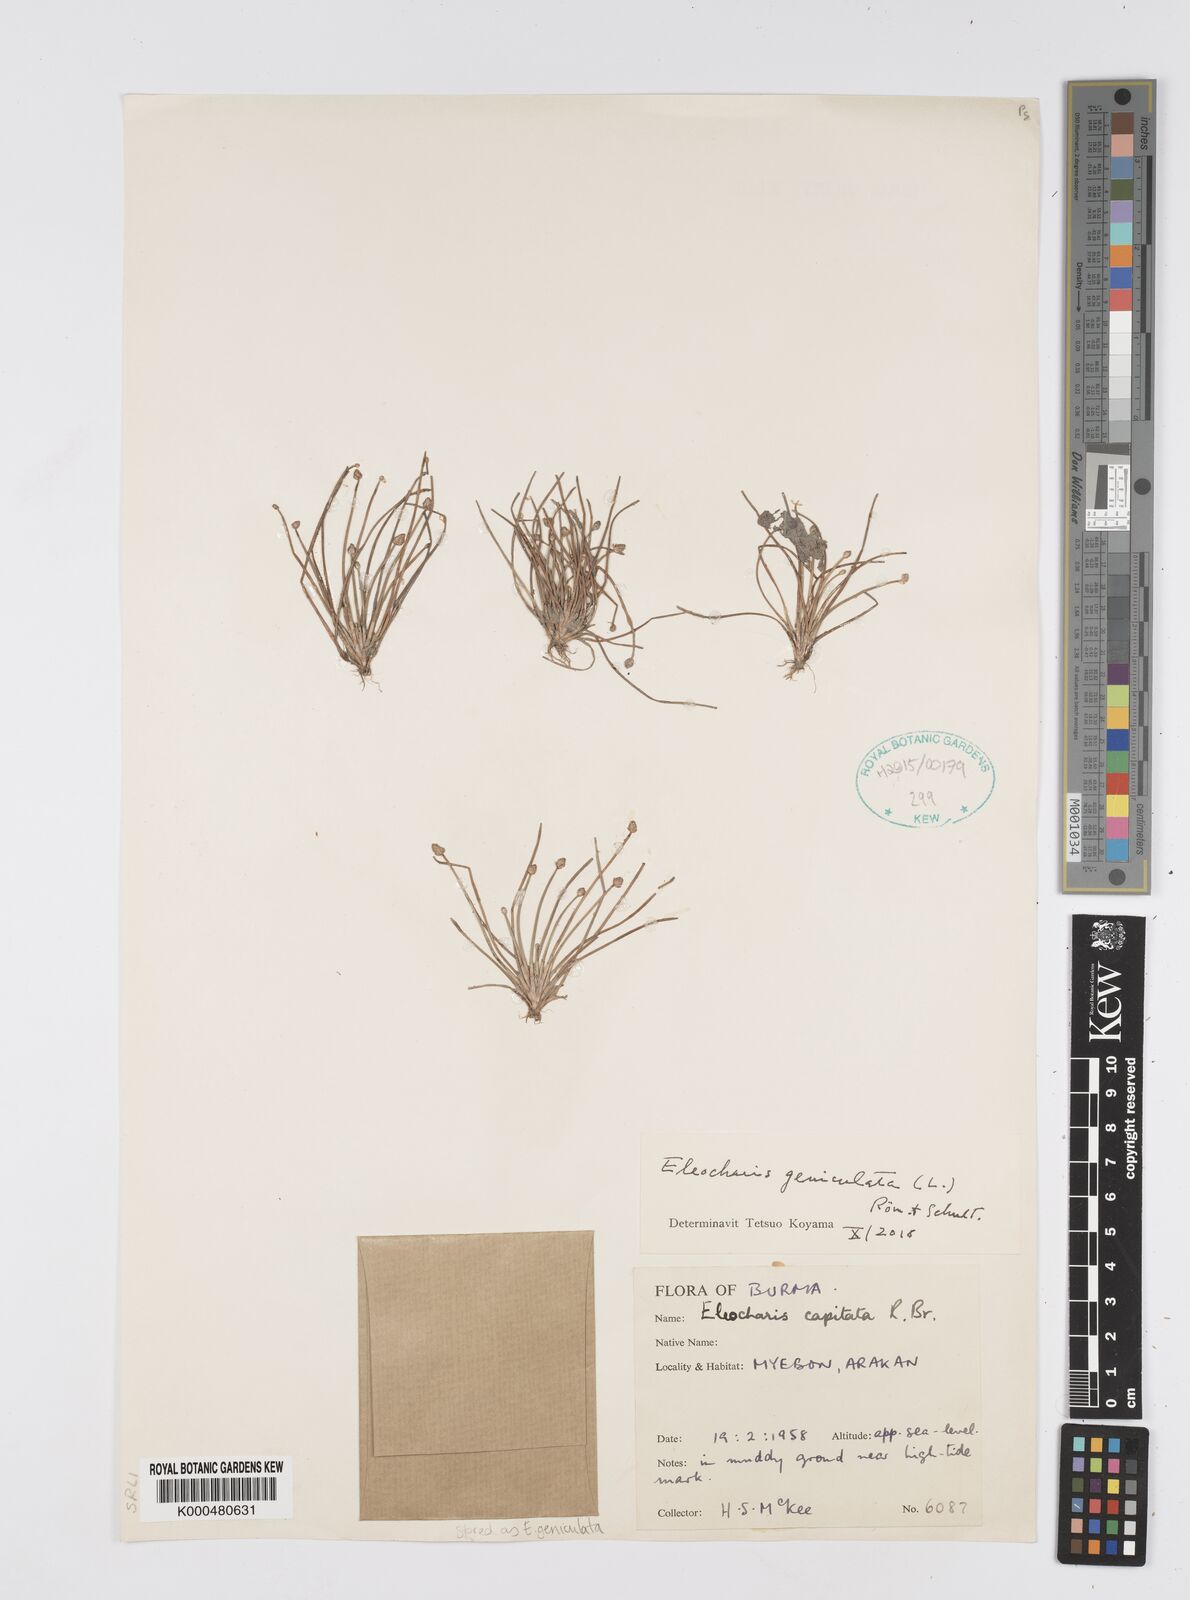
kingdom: Plantae
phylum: Tracheophyta
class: Liliopsida
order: Poales
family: Cyperaceae
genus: Eleocharis
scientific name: Eleocharis geniculata
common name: Canada spikesedge
